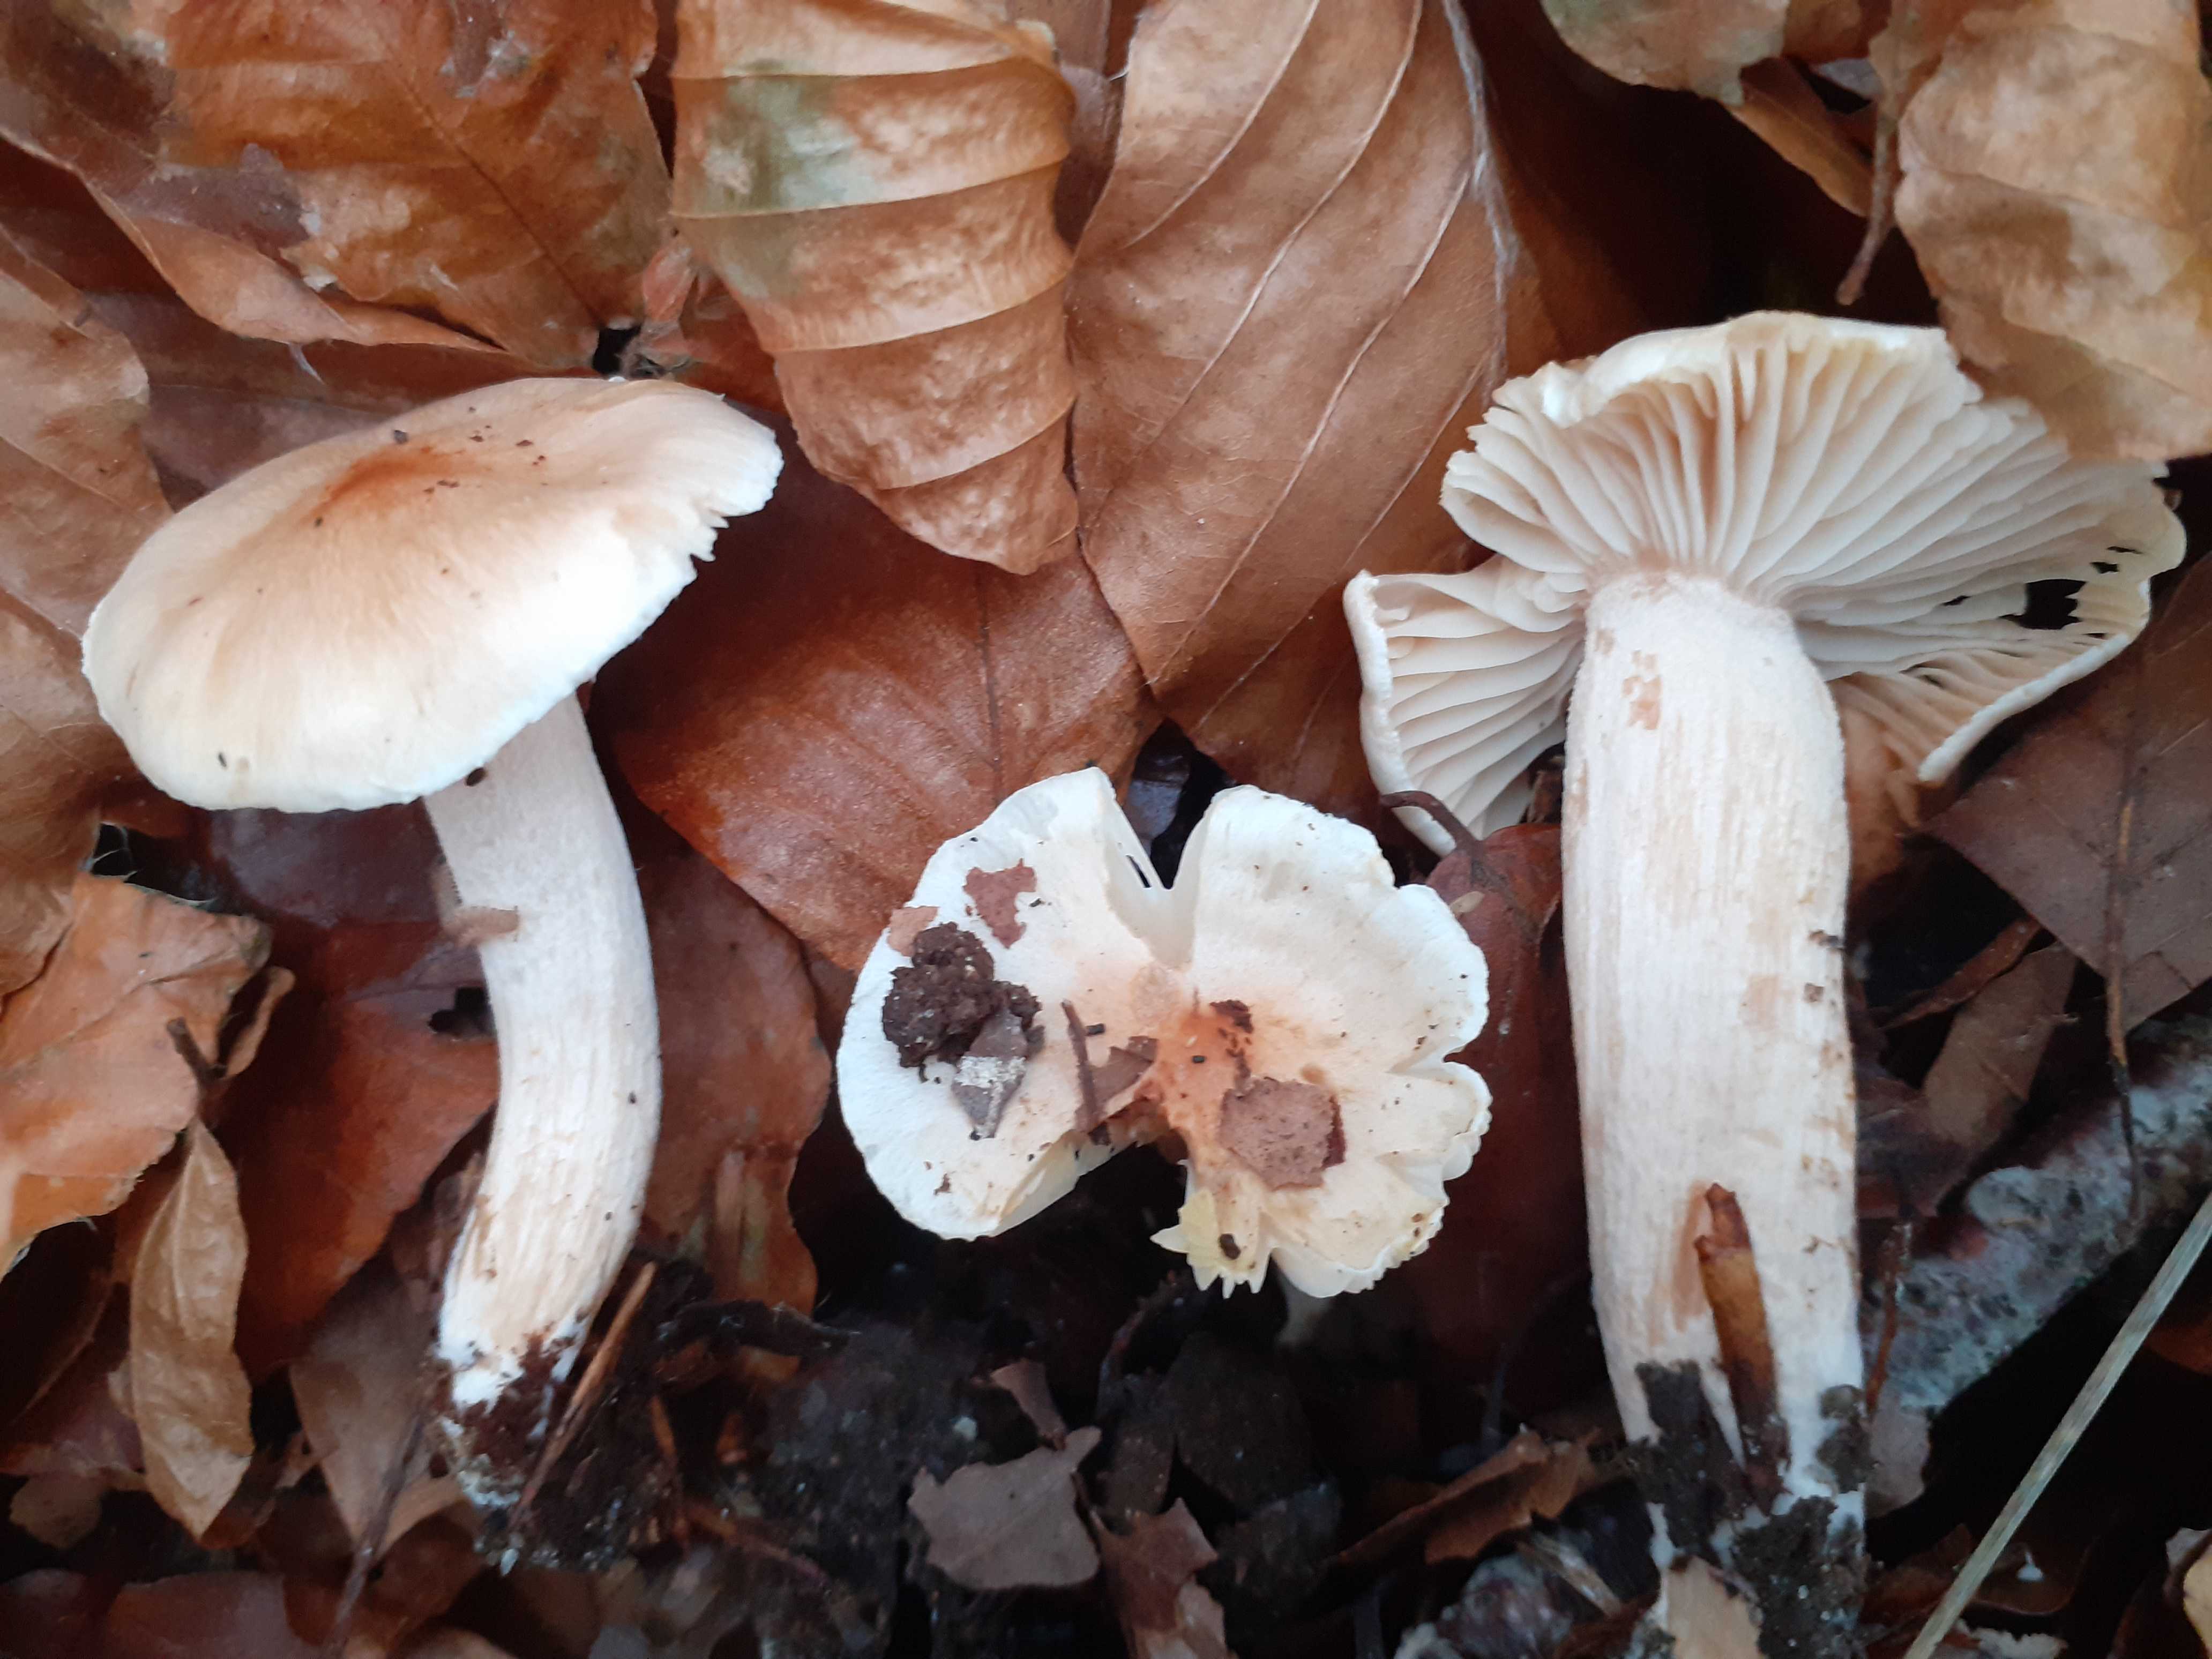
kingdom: Fungi
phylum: Basidiomycota
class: Agaricomycetes
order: Agaricales
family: Hygrophoraceae
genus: Hygrophorus
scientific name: Hygrophorus unicolor
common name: orangeøjet sneglehat
